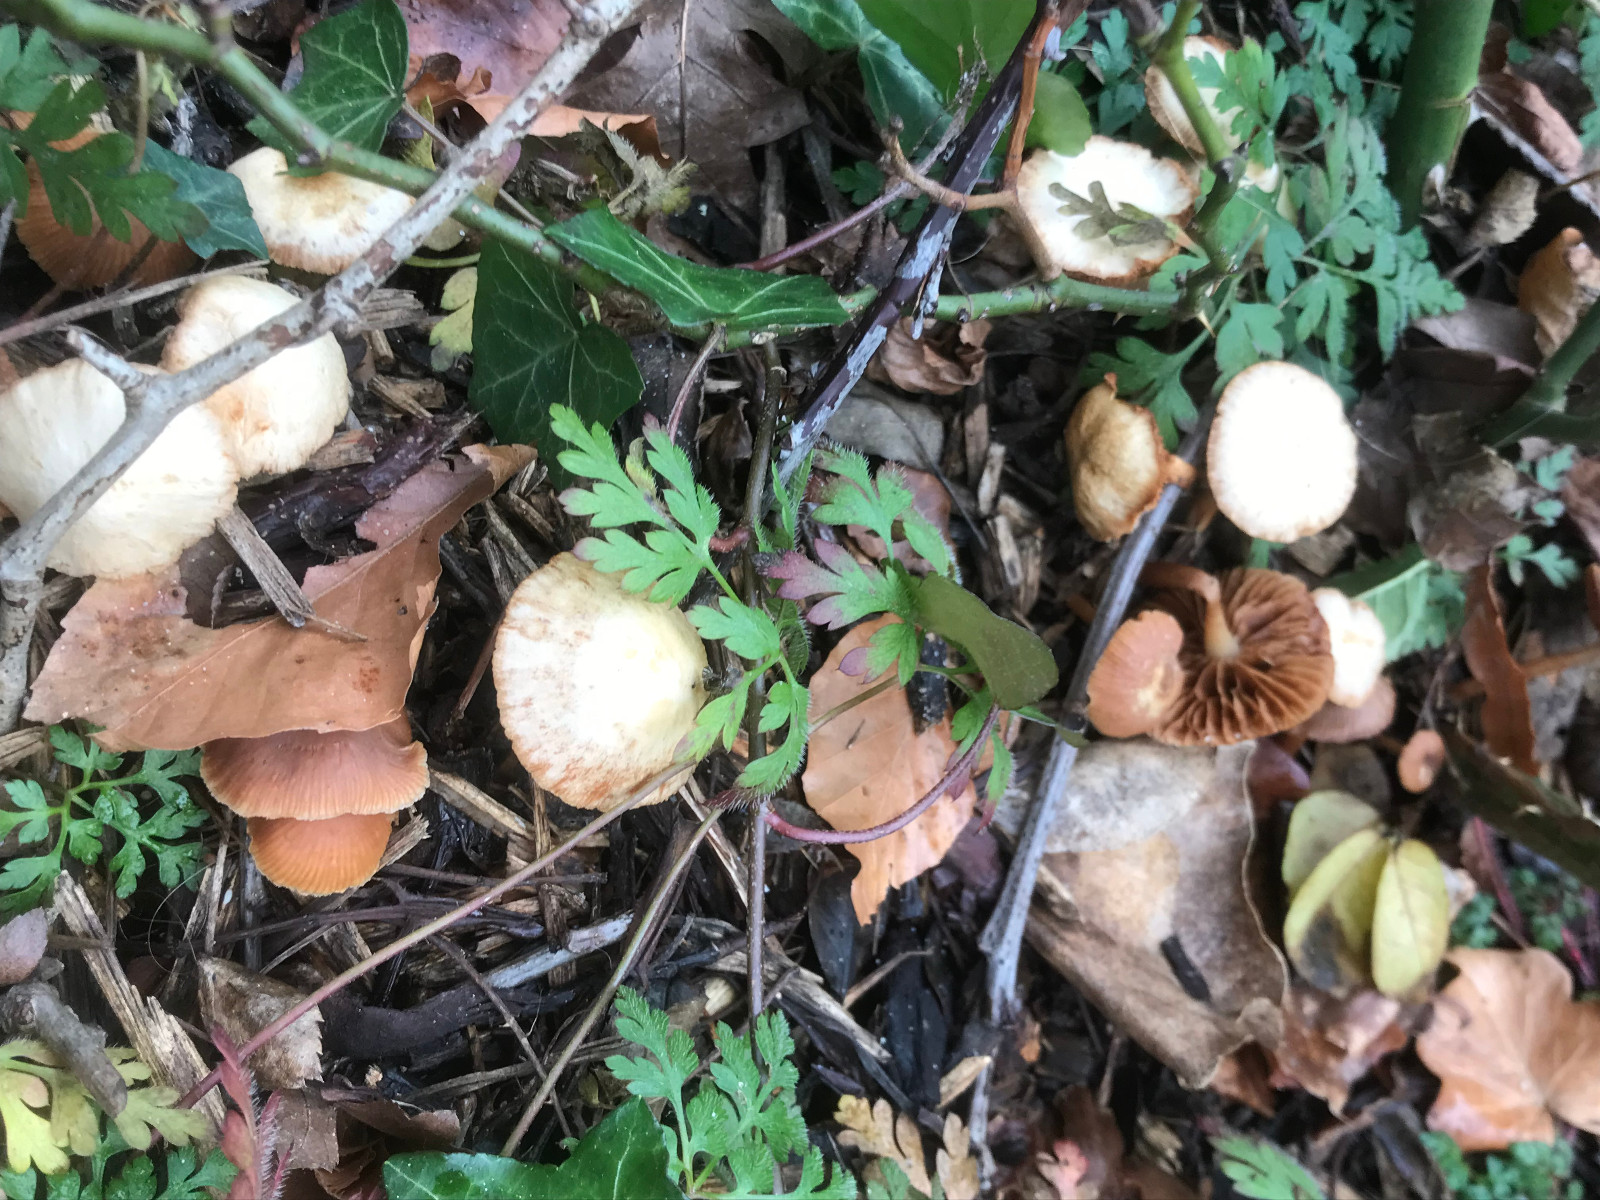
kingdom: Fungi
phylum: Basidiomycota
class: Agaricomycetes
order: Agaricales
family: Tubariaceae
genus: Tubaria
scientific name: Tubaria furfuracea
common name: kliddet fnughat
